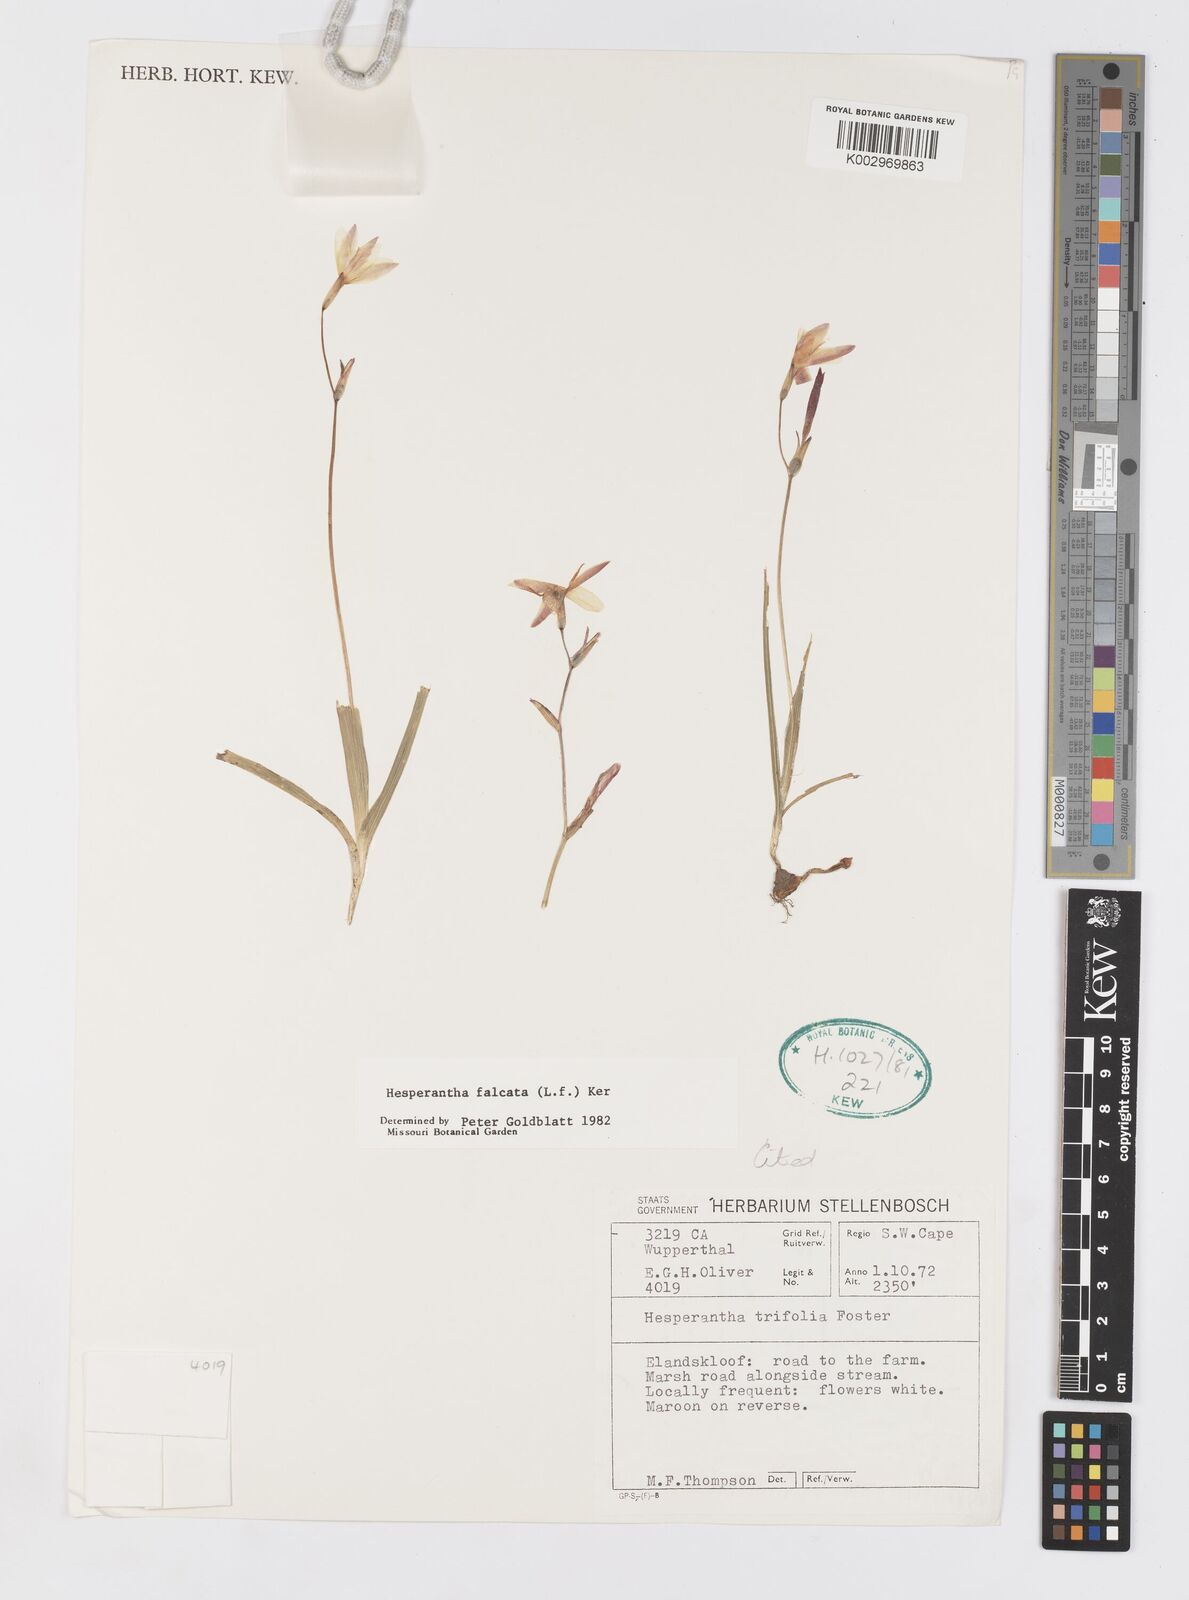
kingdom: Plantae
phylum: Tracheophyta
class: Liliopsida
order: Asparagales
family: Iridaceae
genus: Hesperantha
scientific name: Hesperantha falcata
